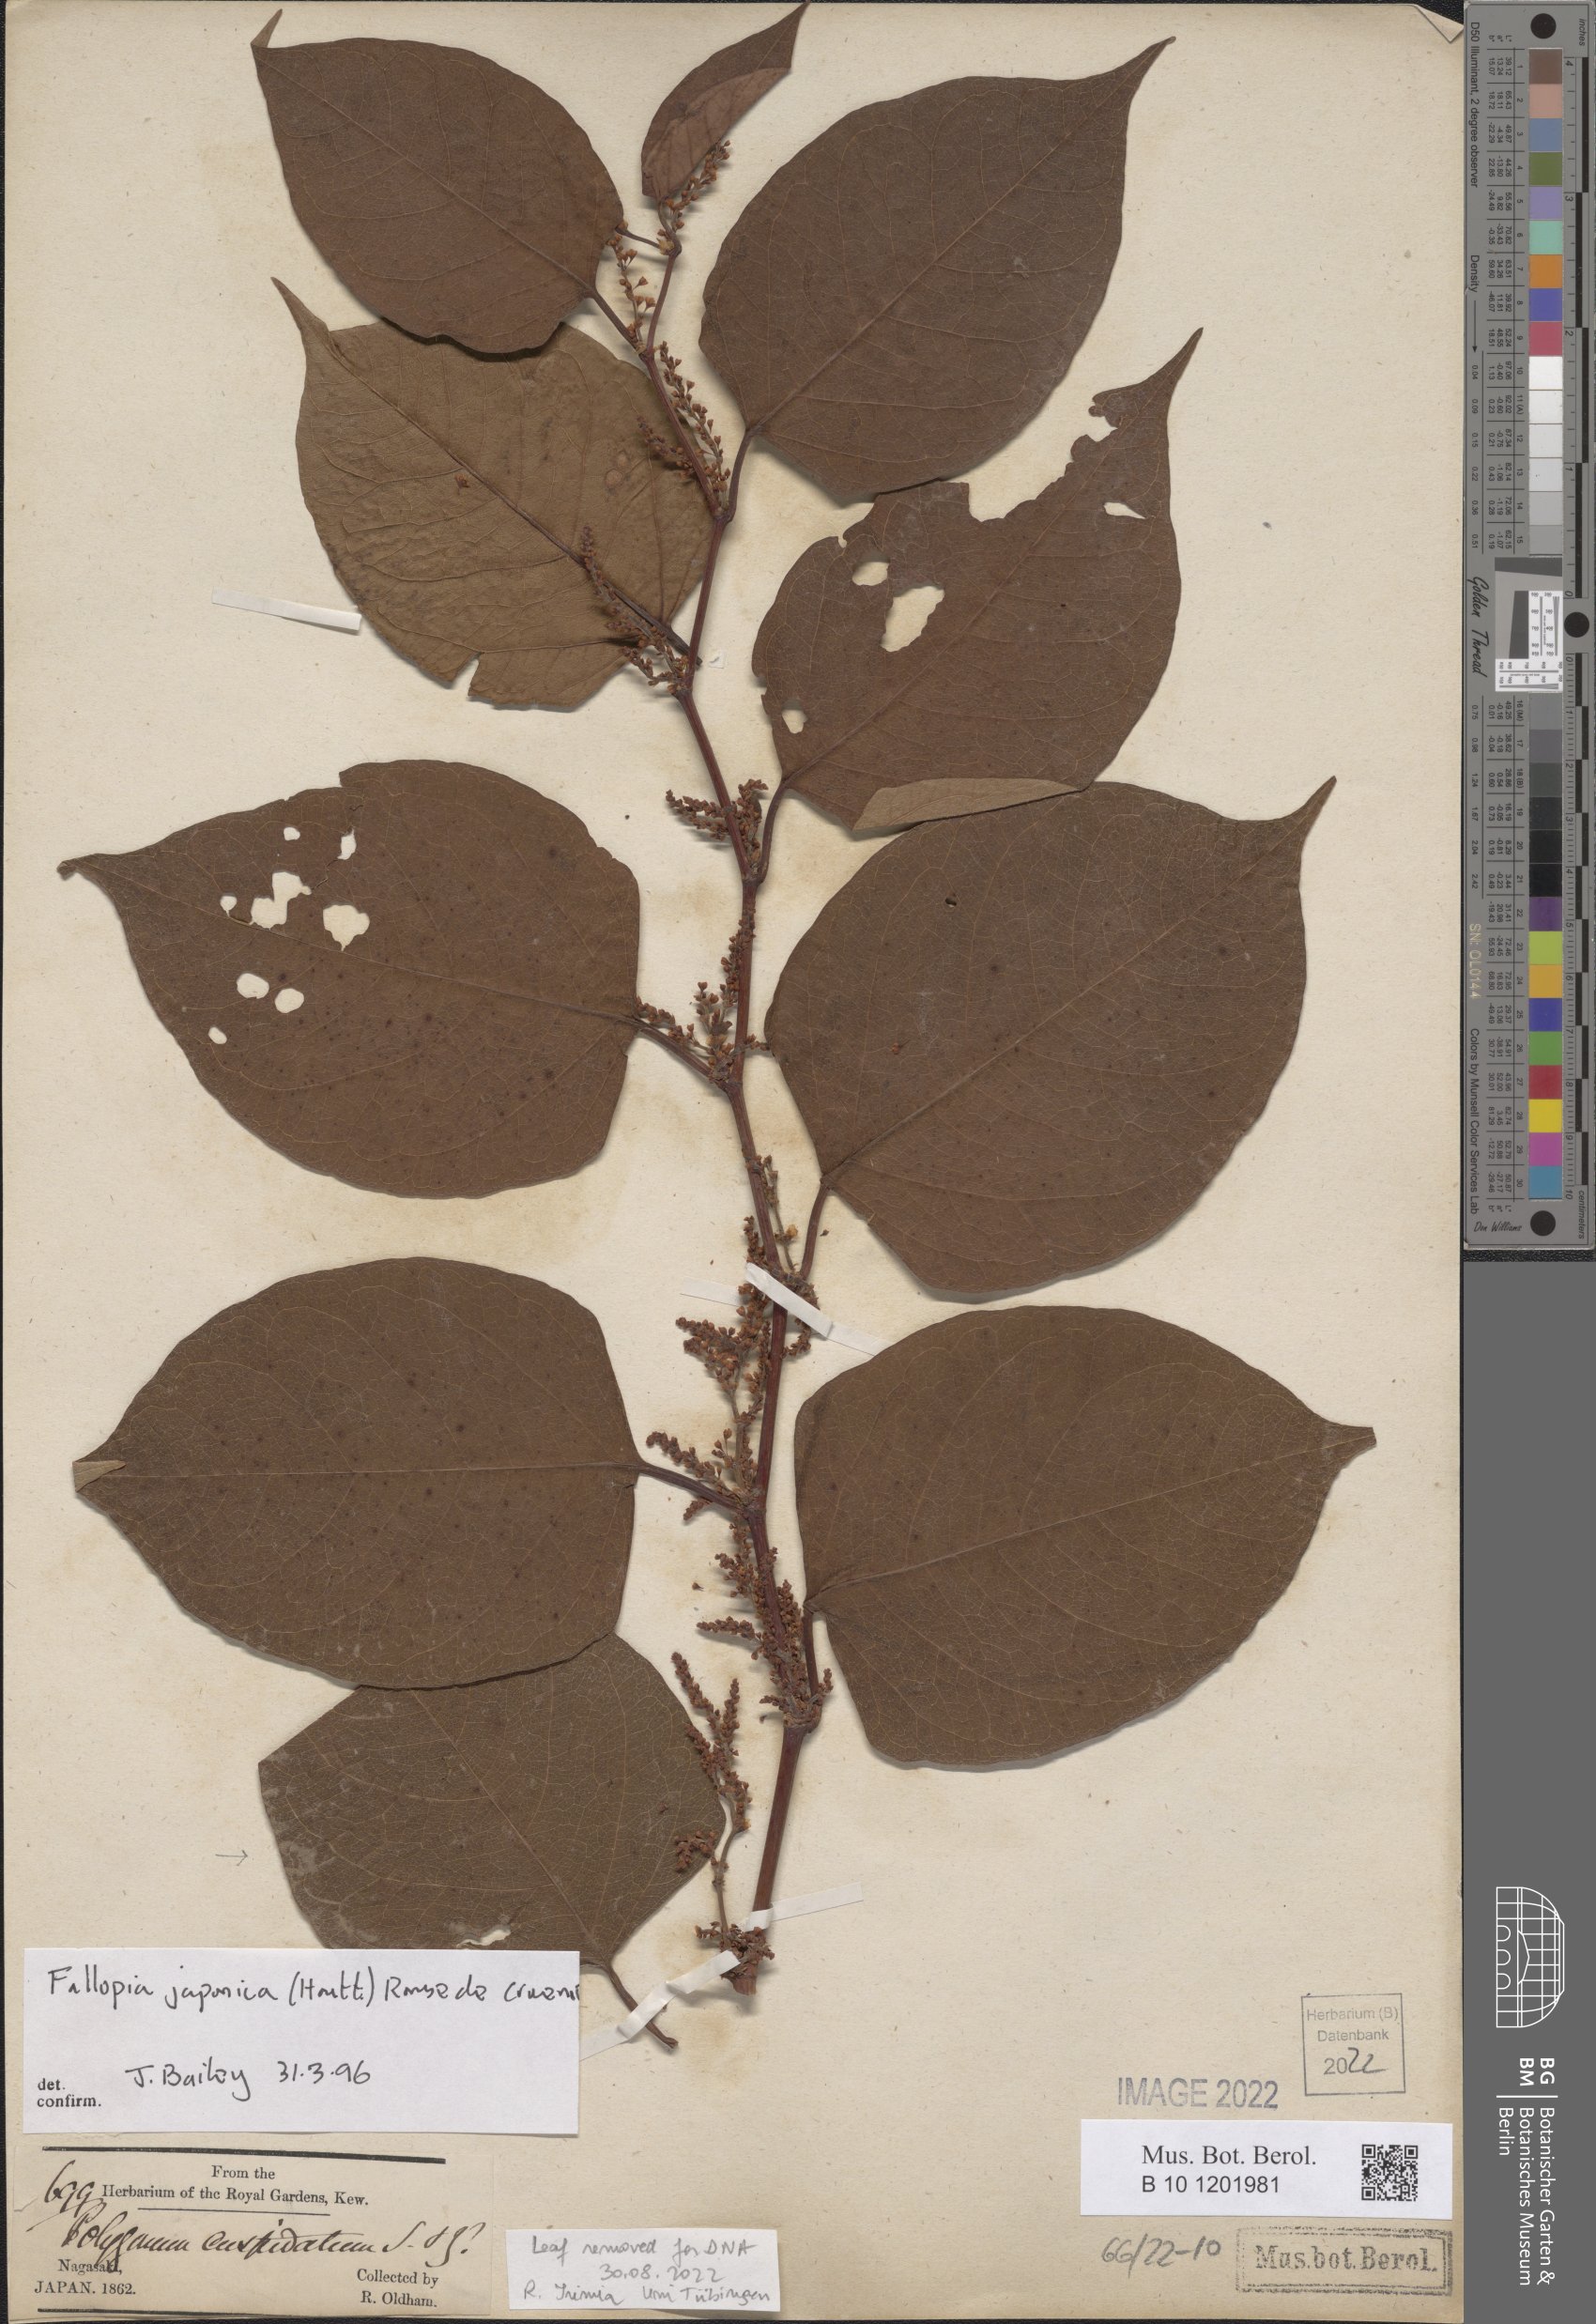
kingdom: Plantae
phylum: Tracheophyta
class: Magnoliopsida
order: Caryophyllales
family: Polygonaceae
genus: Reynoutria
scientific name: Reynoutria japonica
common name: Japanese knotweed
